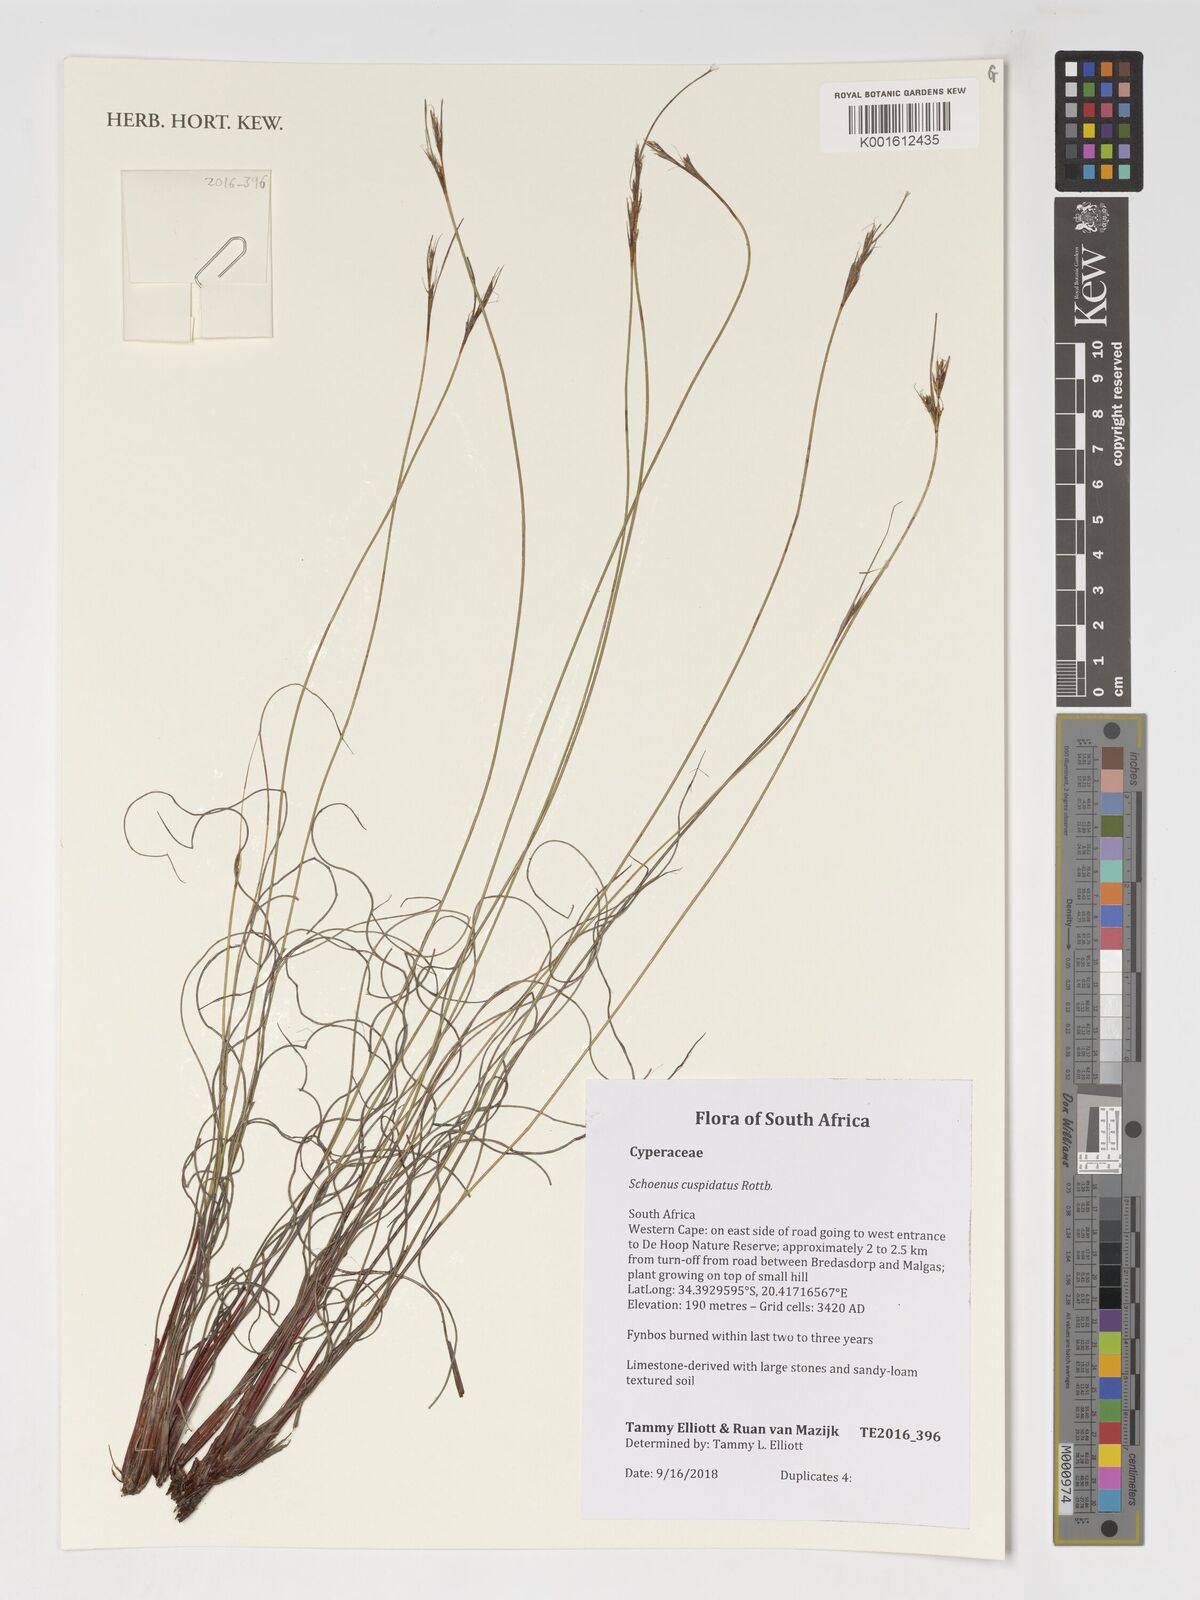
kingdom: Plantae
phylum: Tracheophyta
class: Liliopsida
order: Poales
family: Cyperaceae
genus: Schoenus
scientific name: Schoenus cuspidatus
